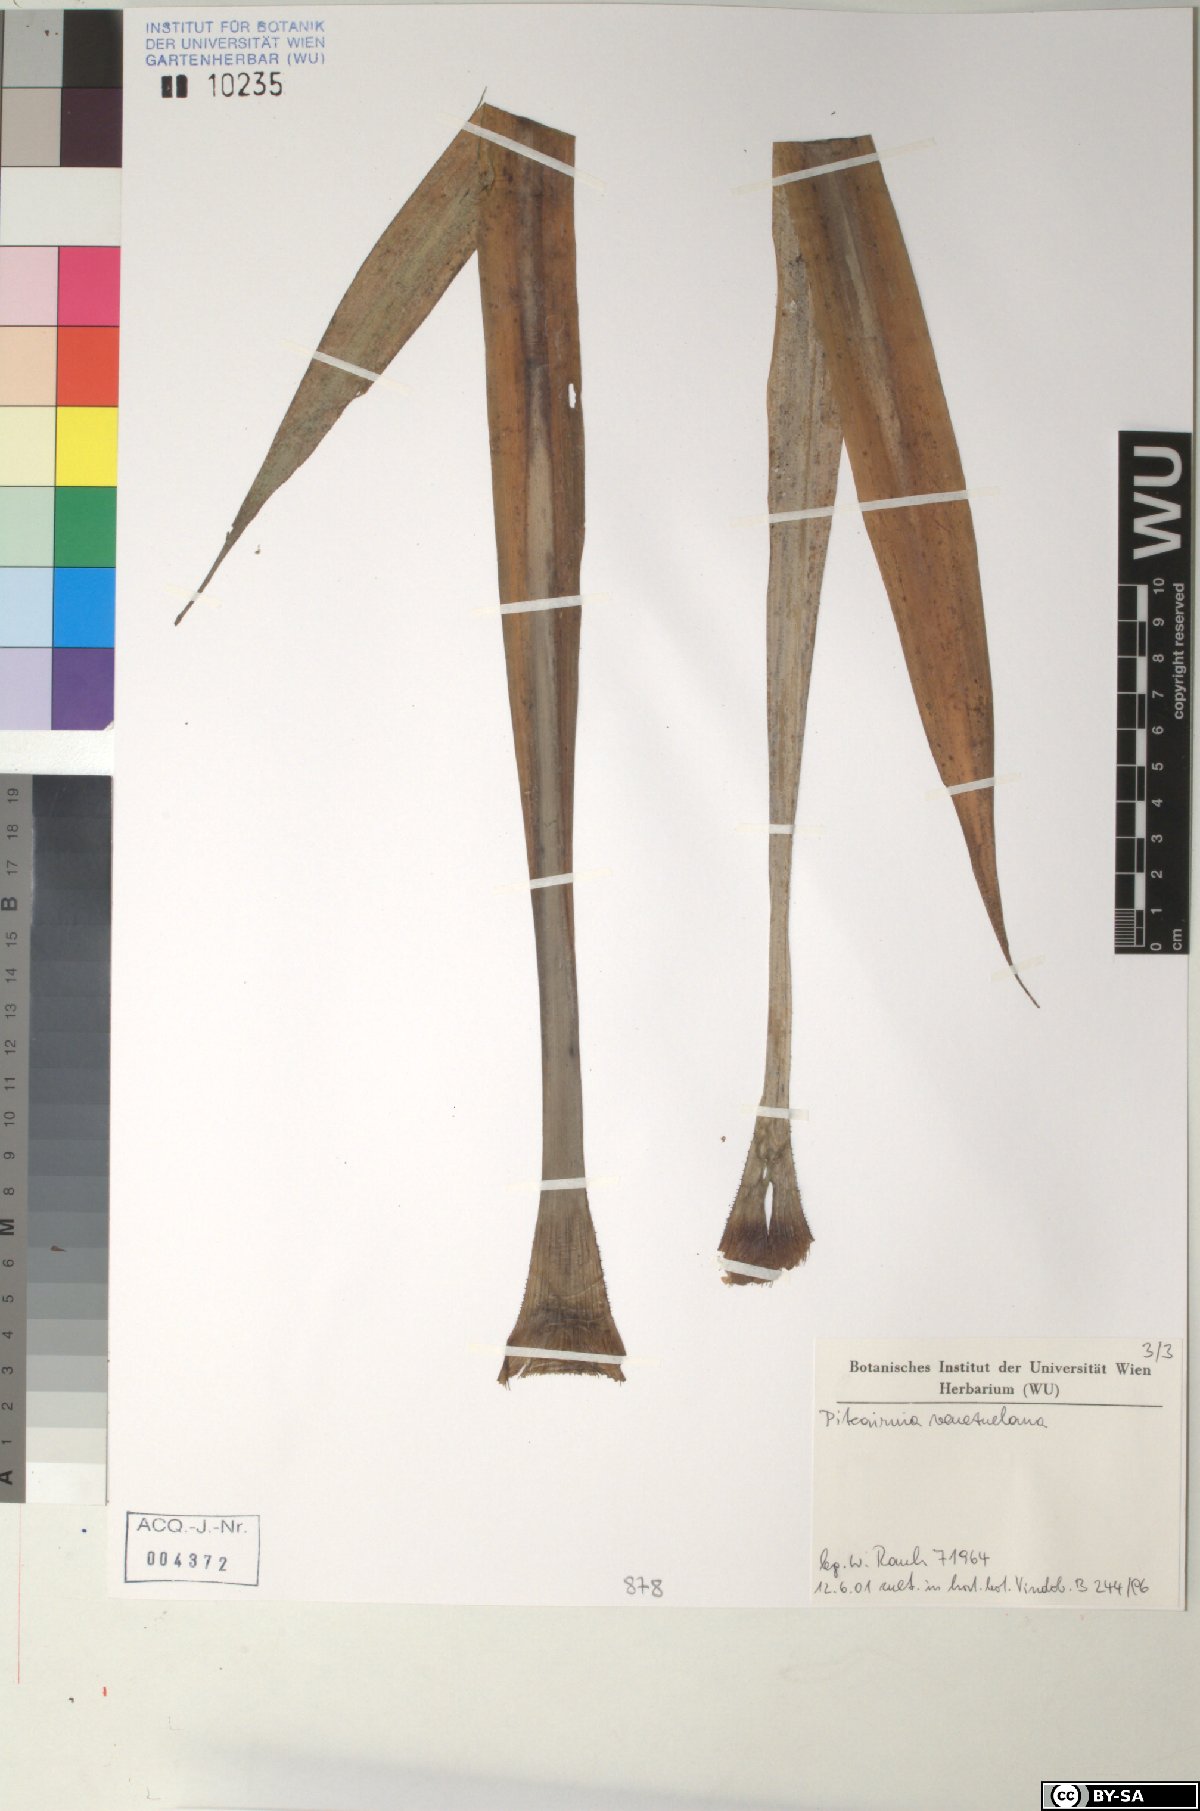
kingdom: Plantae
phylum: Tracheophyta
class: Liliopsida
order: Poales
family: Bromeliaceae
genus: Pitcairnia
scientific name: Pitcairnia venezuelana
